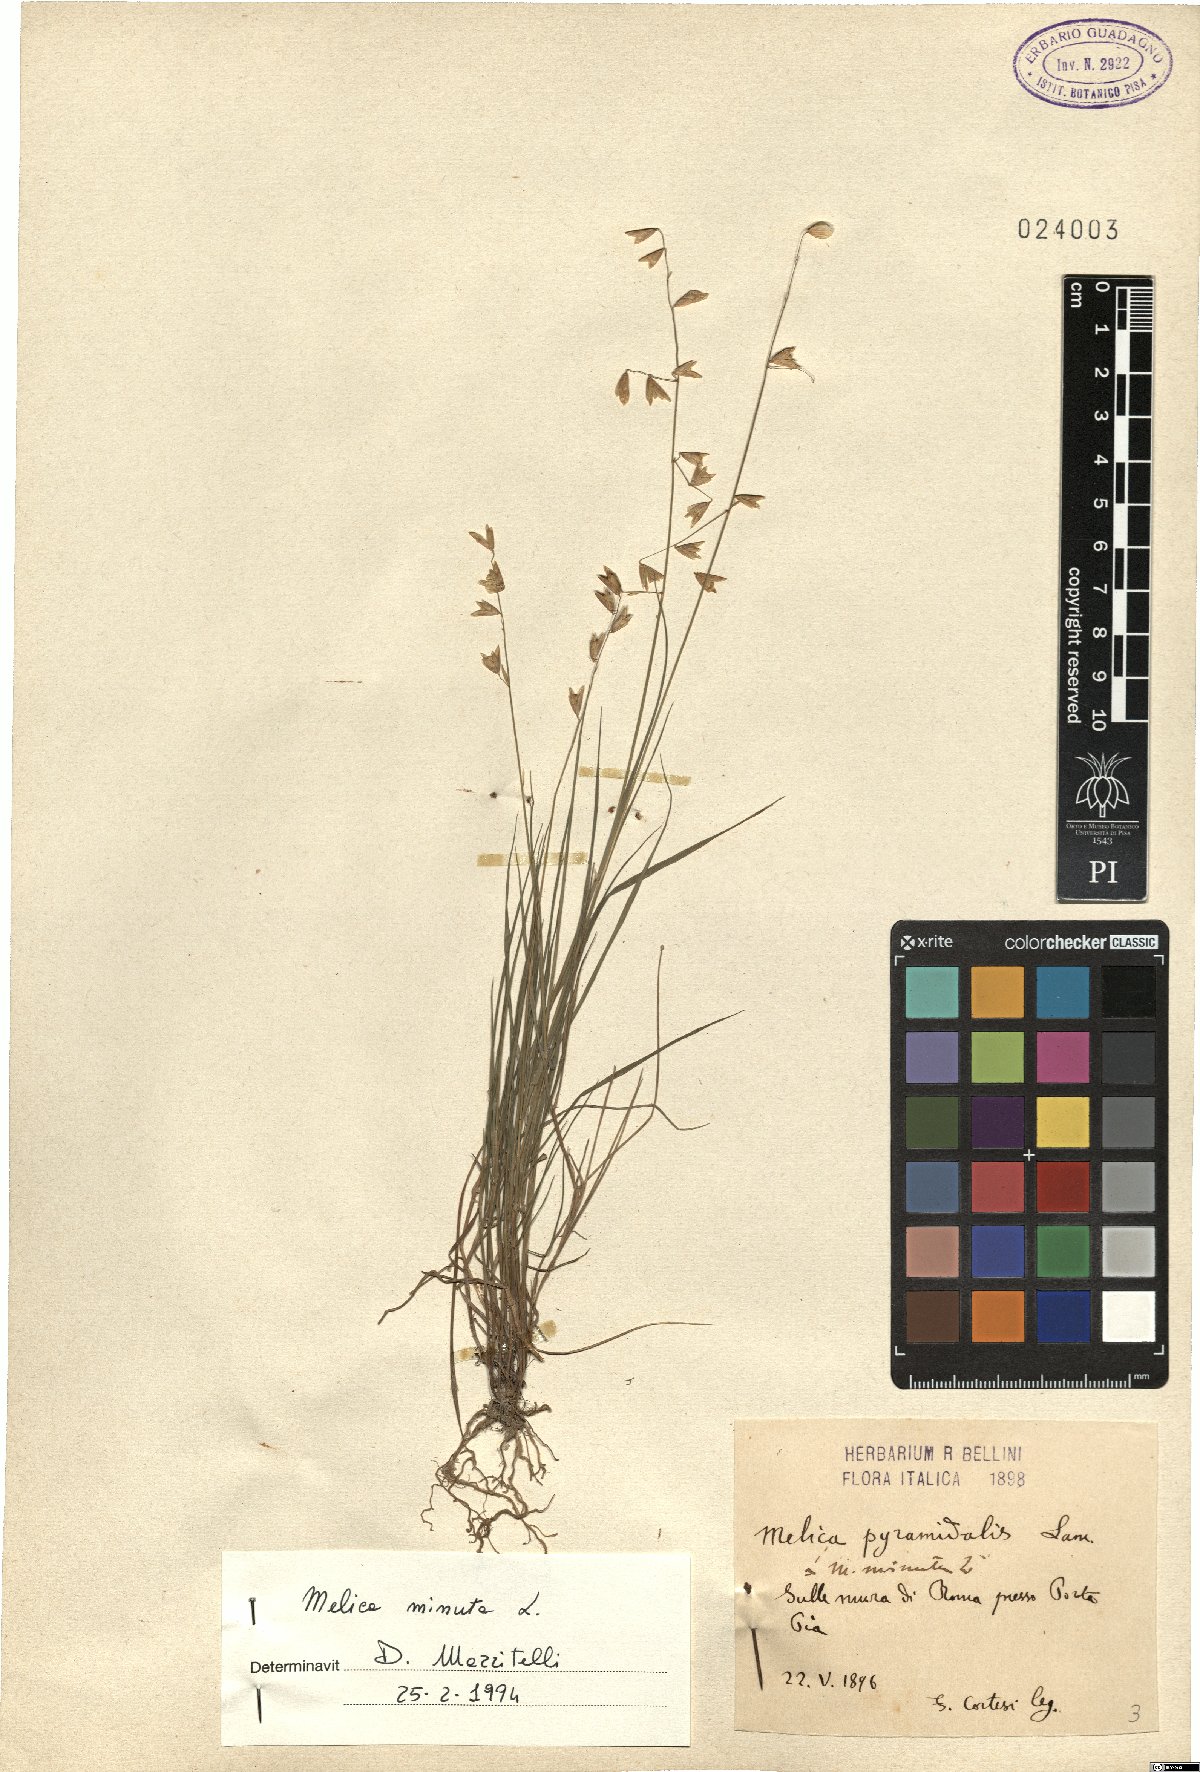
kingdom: Plantae
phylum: Tracheophyta
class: Liliopsida
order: Poales
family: Poaceae
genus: Melica
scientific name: Melica minuta
